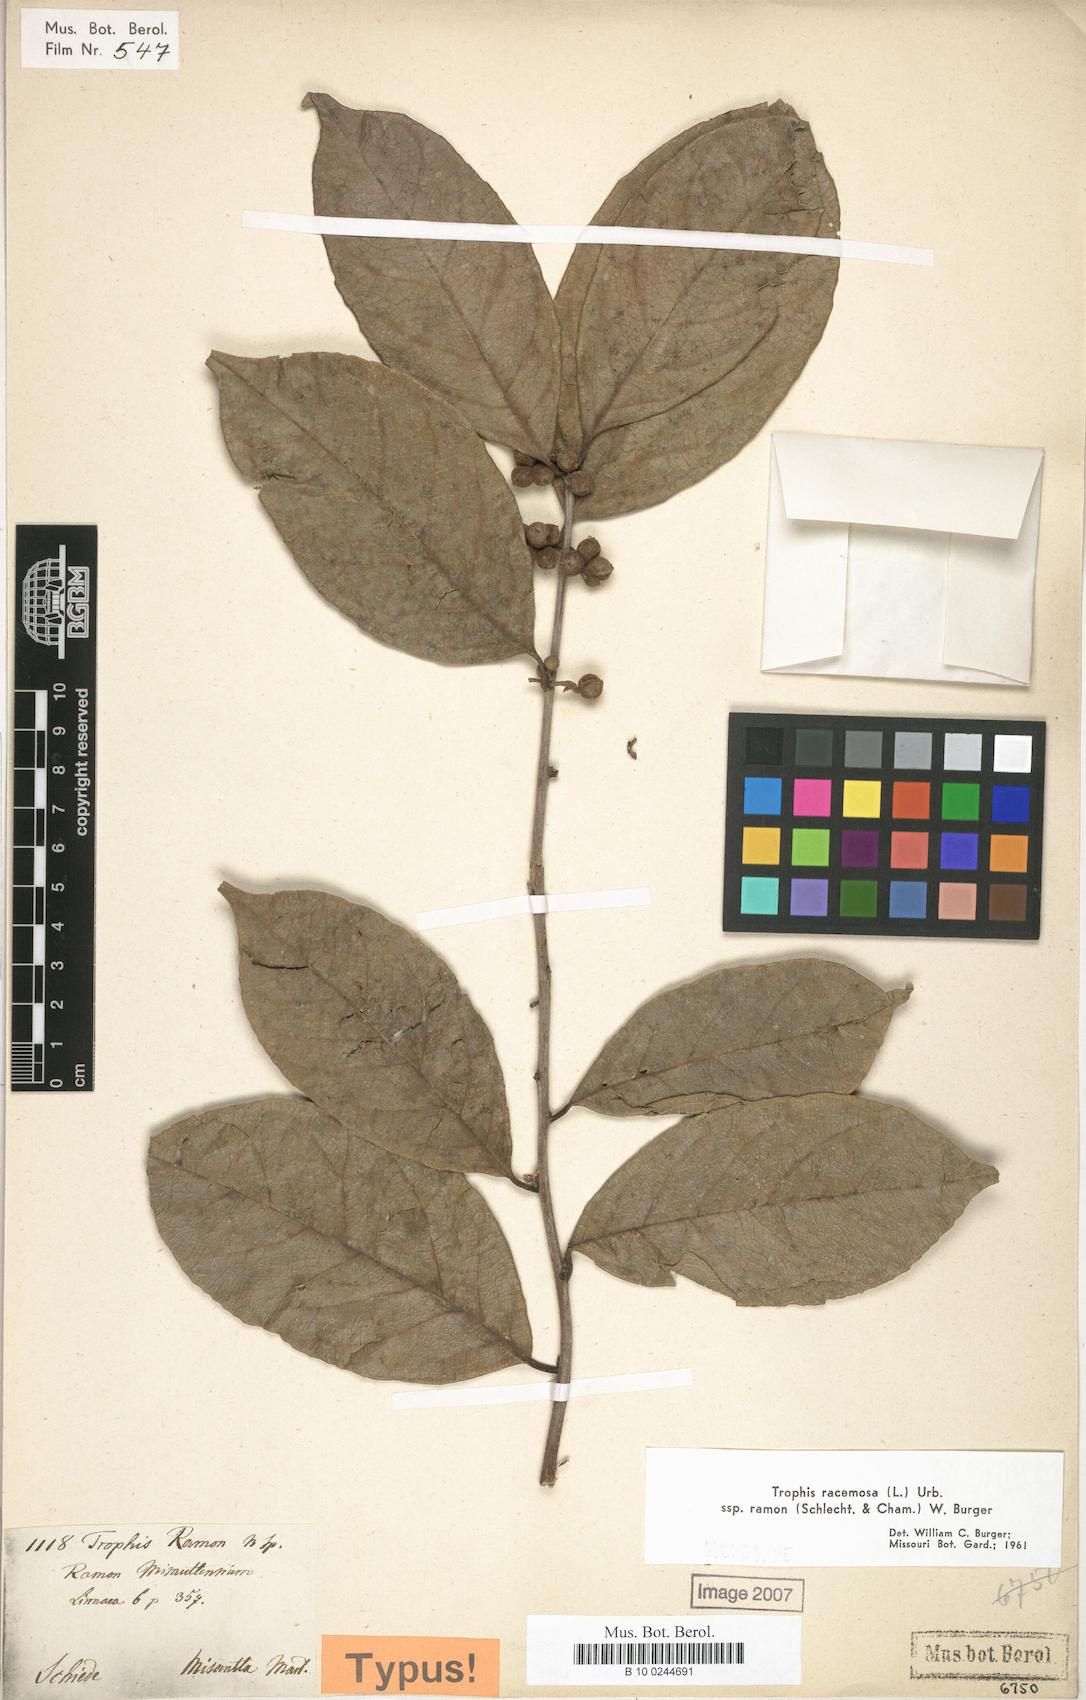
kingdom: Plantae
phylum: Tracheophyta
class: Magnoliopsida
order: Rosales
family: Moraceae
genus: Trophis
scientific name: Trophis racemosa
